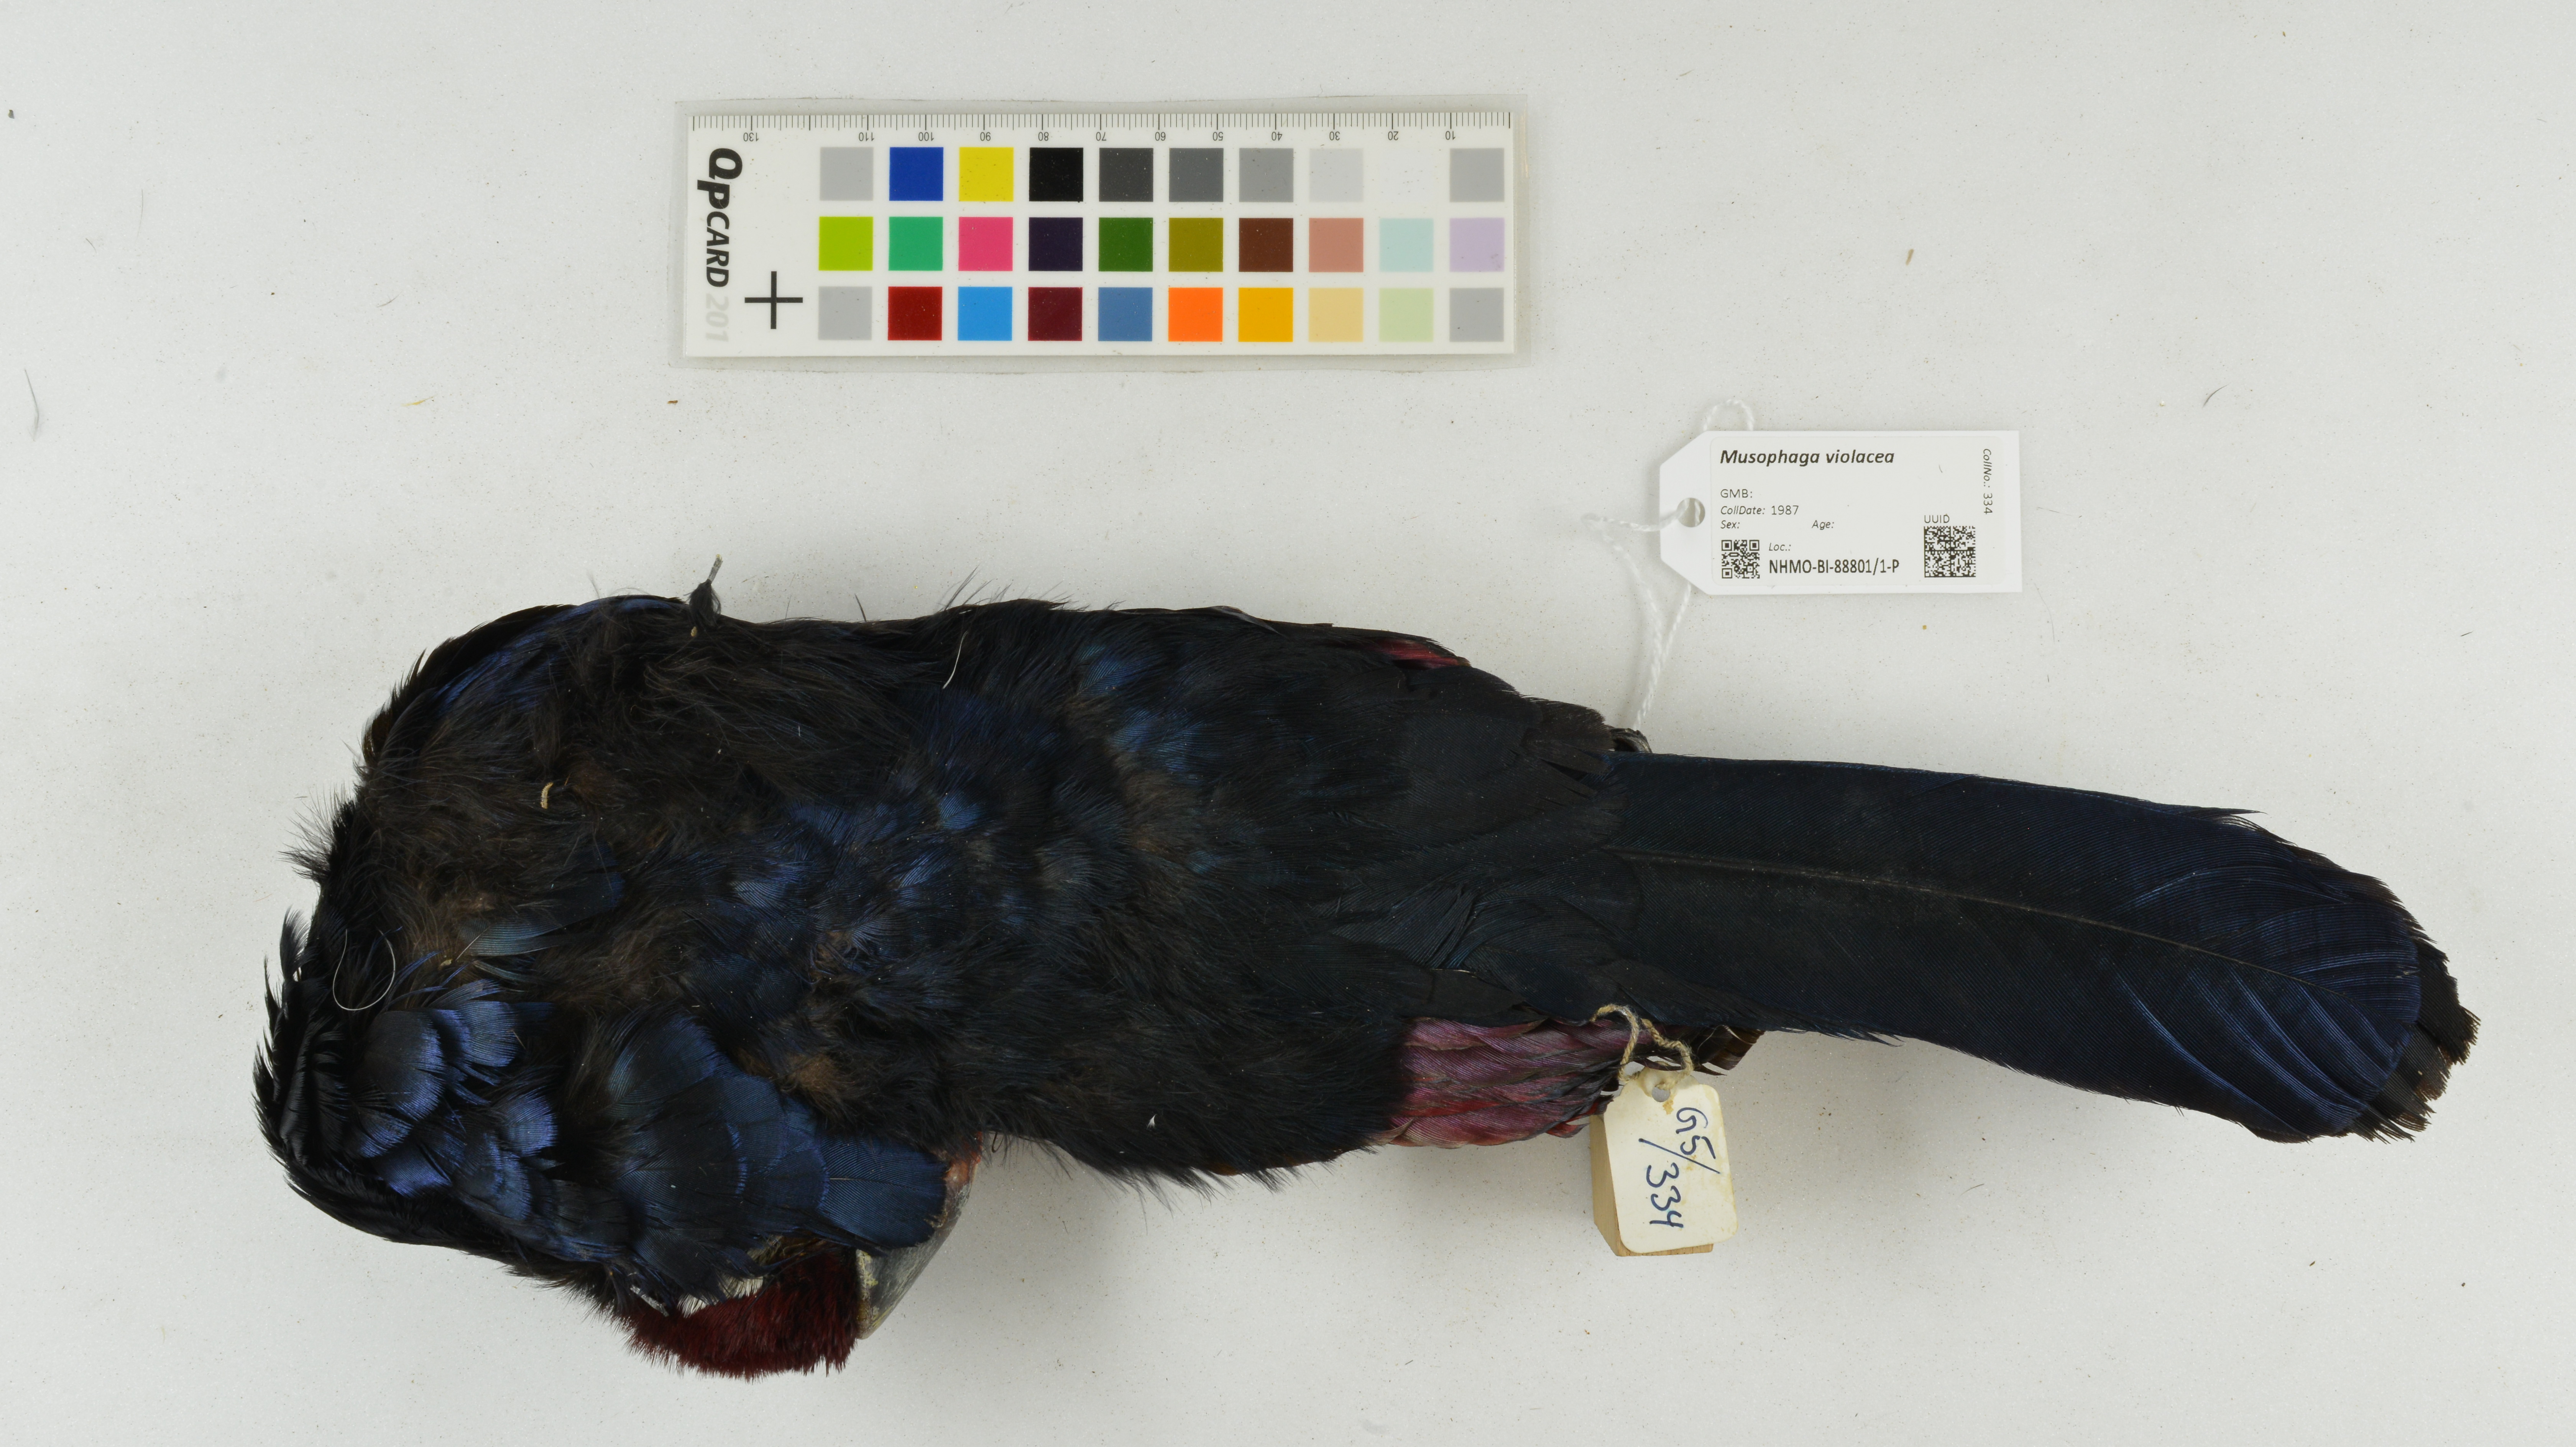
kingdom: Animalia
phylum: Chordata
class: Aves
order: Musophagiformes
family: Musophagidae
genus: Musophaga
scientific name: Musophaga violacea
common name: Violet turaco
